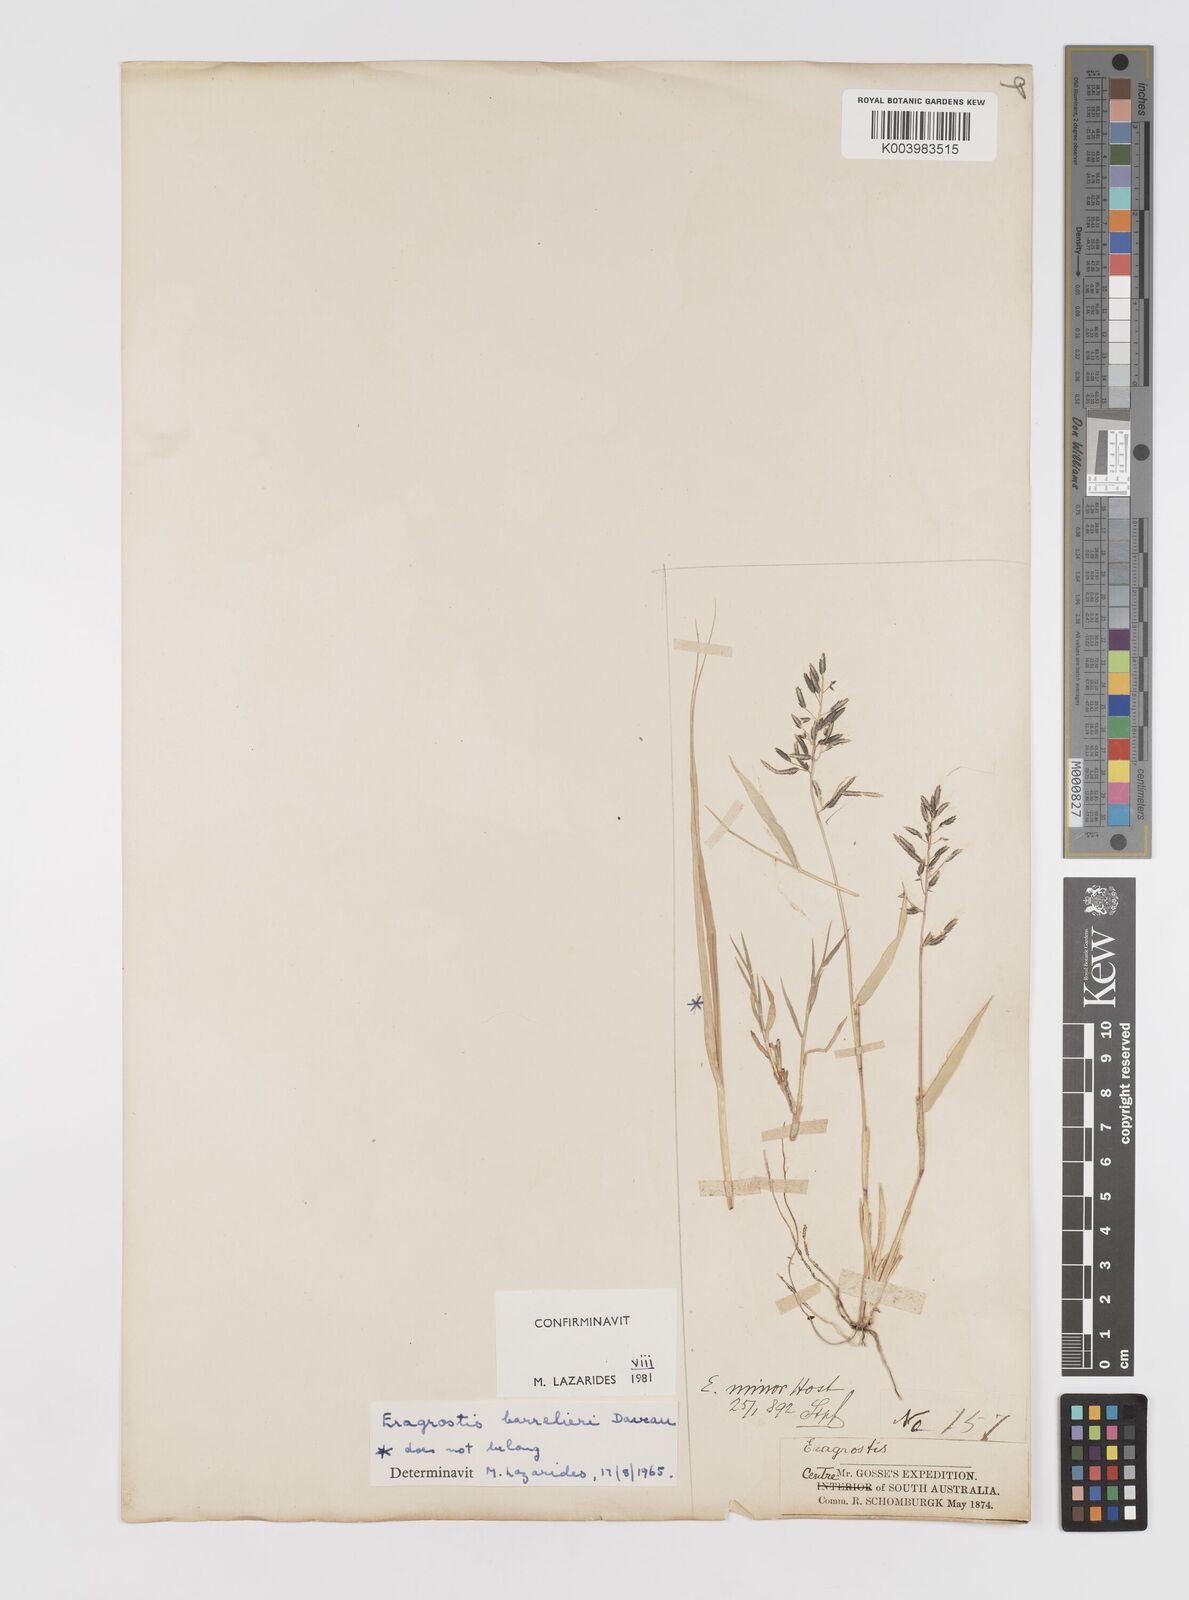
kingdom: Plantae
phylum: Tracheophyta
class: Liliopsida
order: Poales
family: Poaceae
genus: Eragrostis
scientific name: Eragrostis barrelieri
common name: Mediterranean lovegrass
